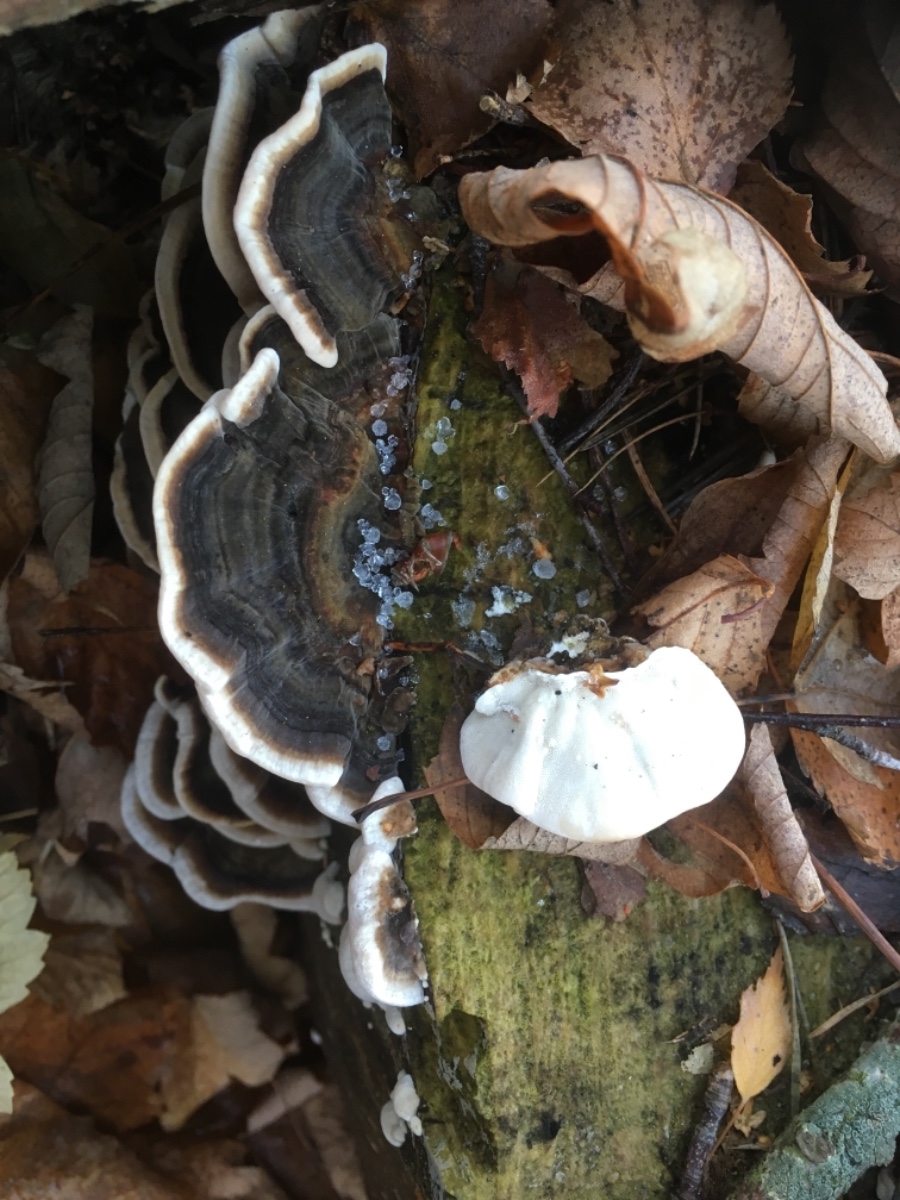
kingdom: Fungi
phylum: Basidiomycota
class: Agaricomycetes
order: Polyporales
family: Polyporaceae
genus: Trametes
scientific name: Trametes versicolor
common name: broget læderporesvamp
